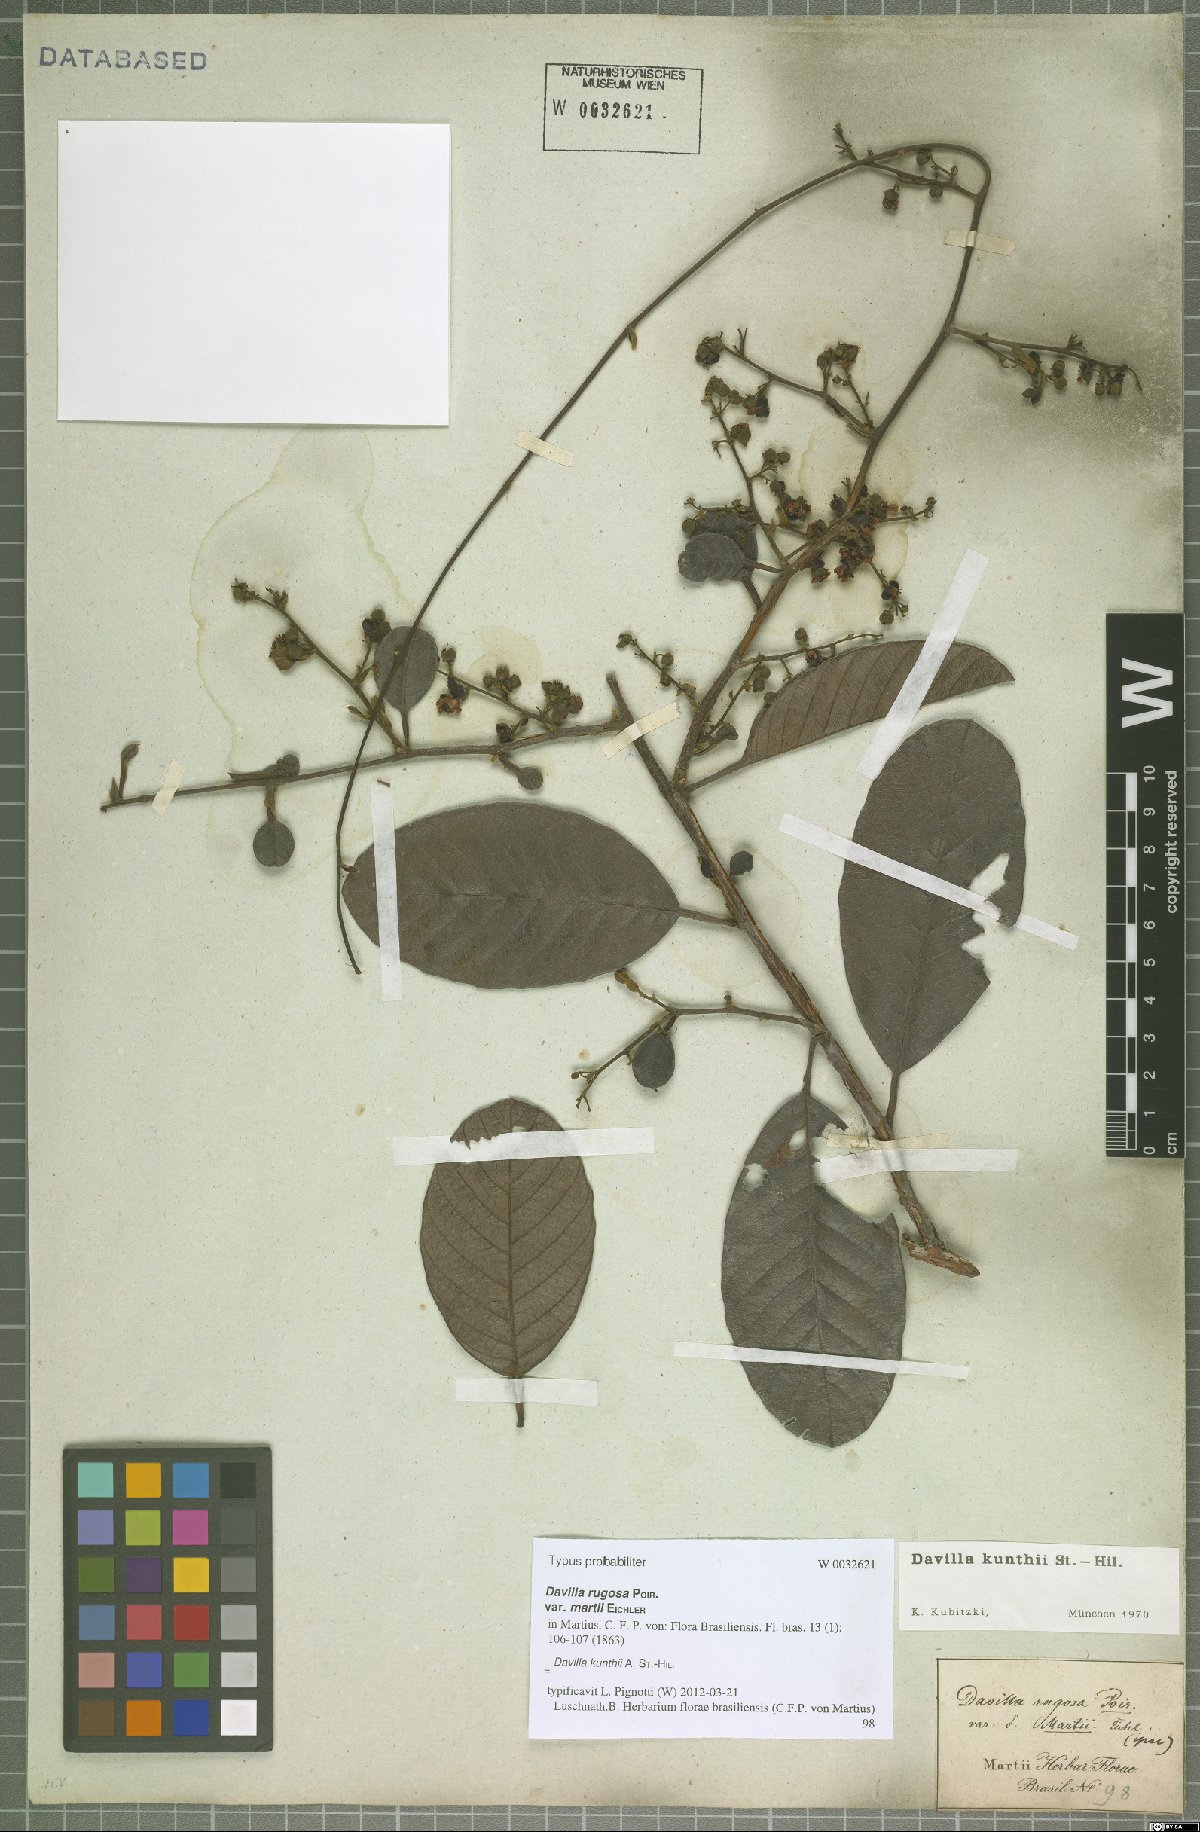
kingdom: Plantae
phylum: Tracheophyta
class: Magnoliopsida
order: Dilleniales
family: Dilleniaceae
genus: Davilla
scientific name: Davilla kunthii
